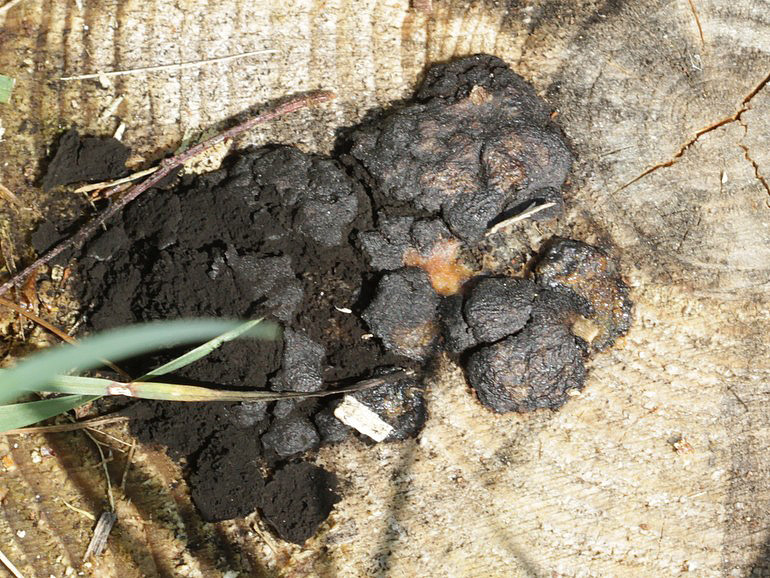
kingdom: Protozoa
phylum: Mycetozoa
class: Myxomycetes
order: Stemonitidales
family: Stemonitidaceae
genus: Amaurochaete
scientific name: Amaurochaete atra
